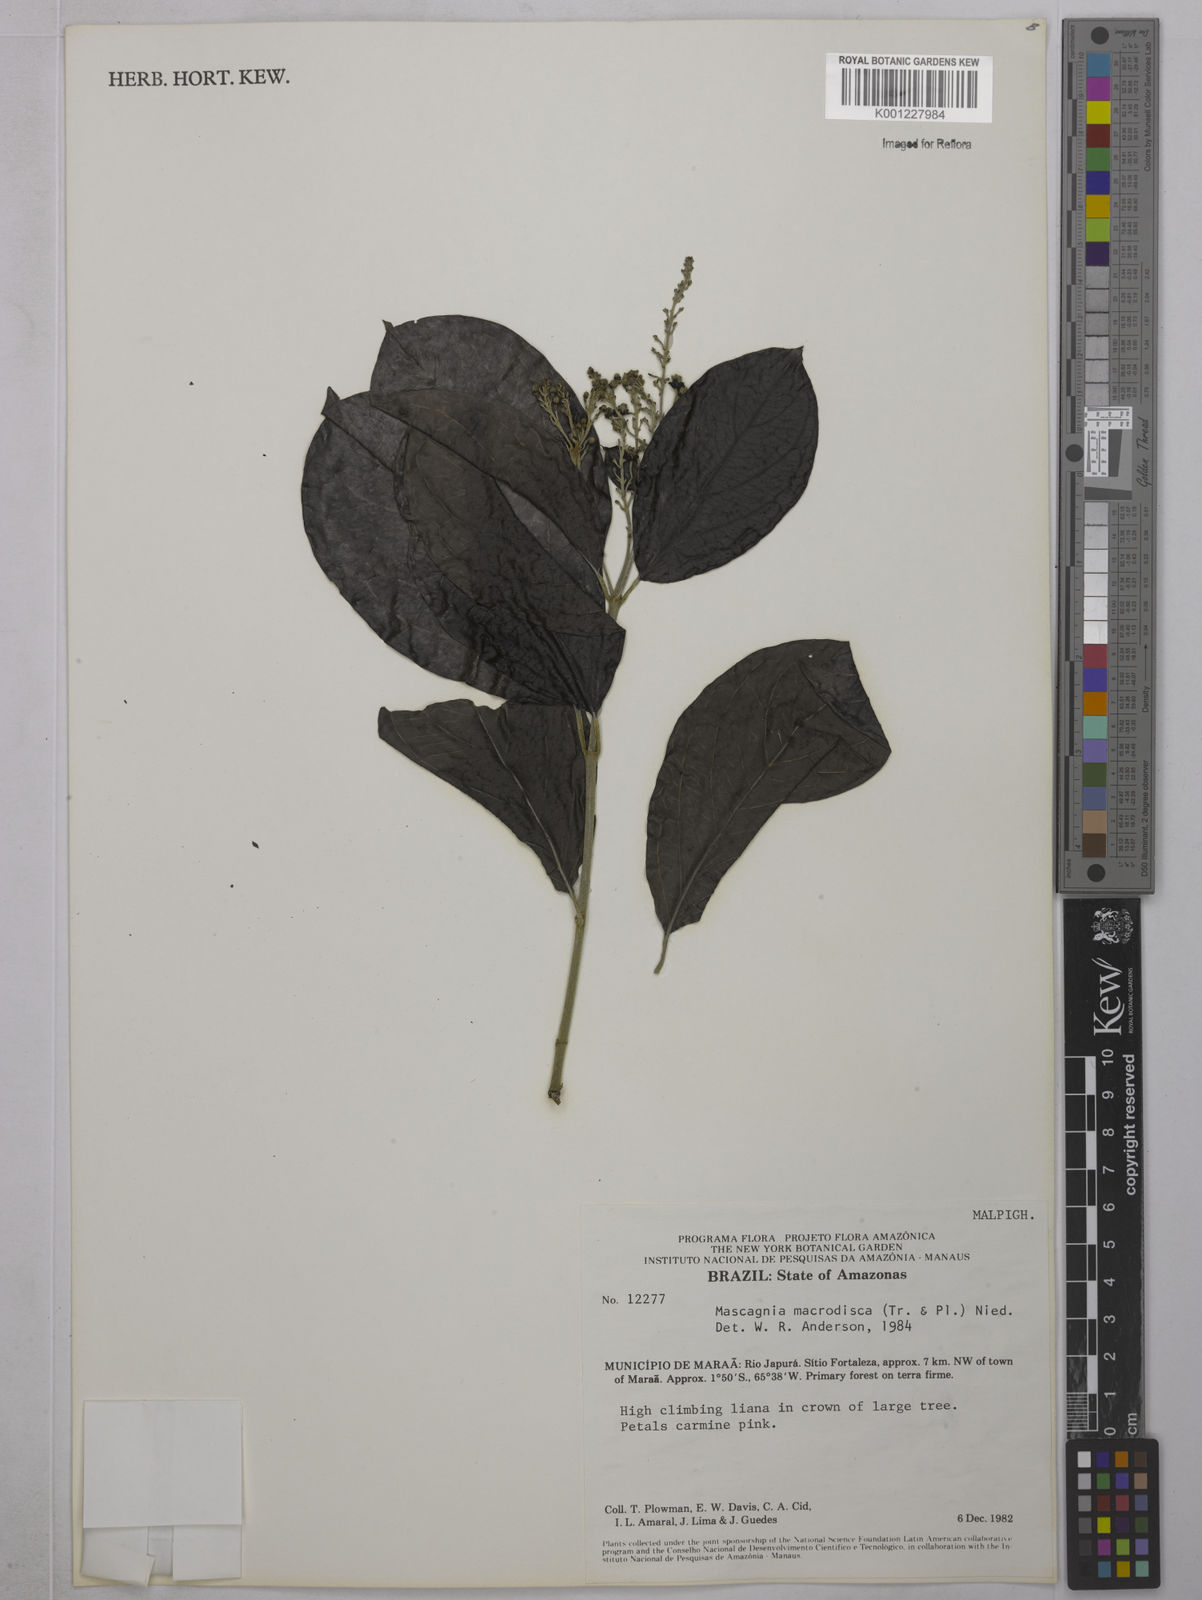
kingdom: Plantae
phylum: Tracheophyta
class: Magnoliopsida
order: Malpighiales
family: Malpighiaceae
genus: Alicia
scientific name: Alicia
